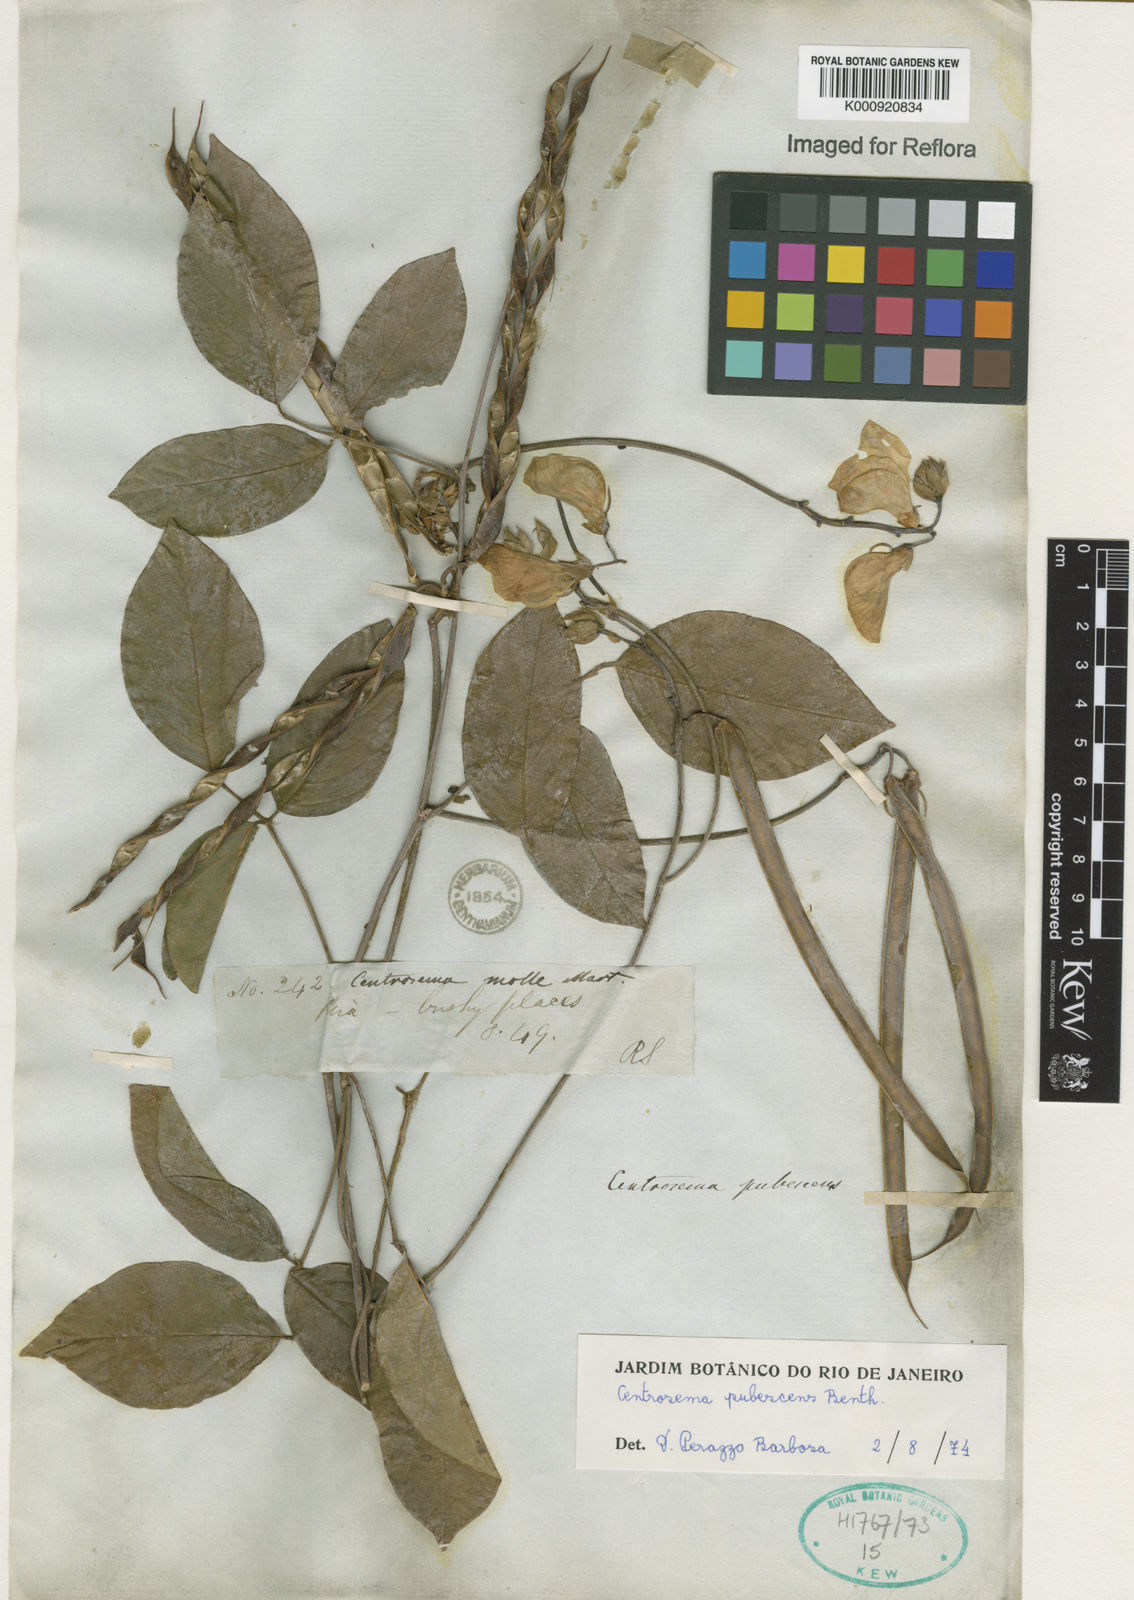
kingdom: Plantae
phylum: Tracheophyta
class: Magnoliopsida
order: Fabales
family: Fabaceae
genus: Centrosema
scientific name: Centrosema pubescens
